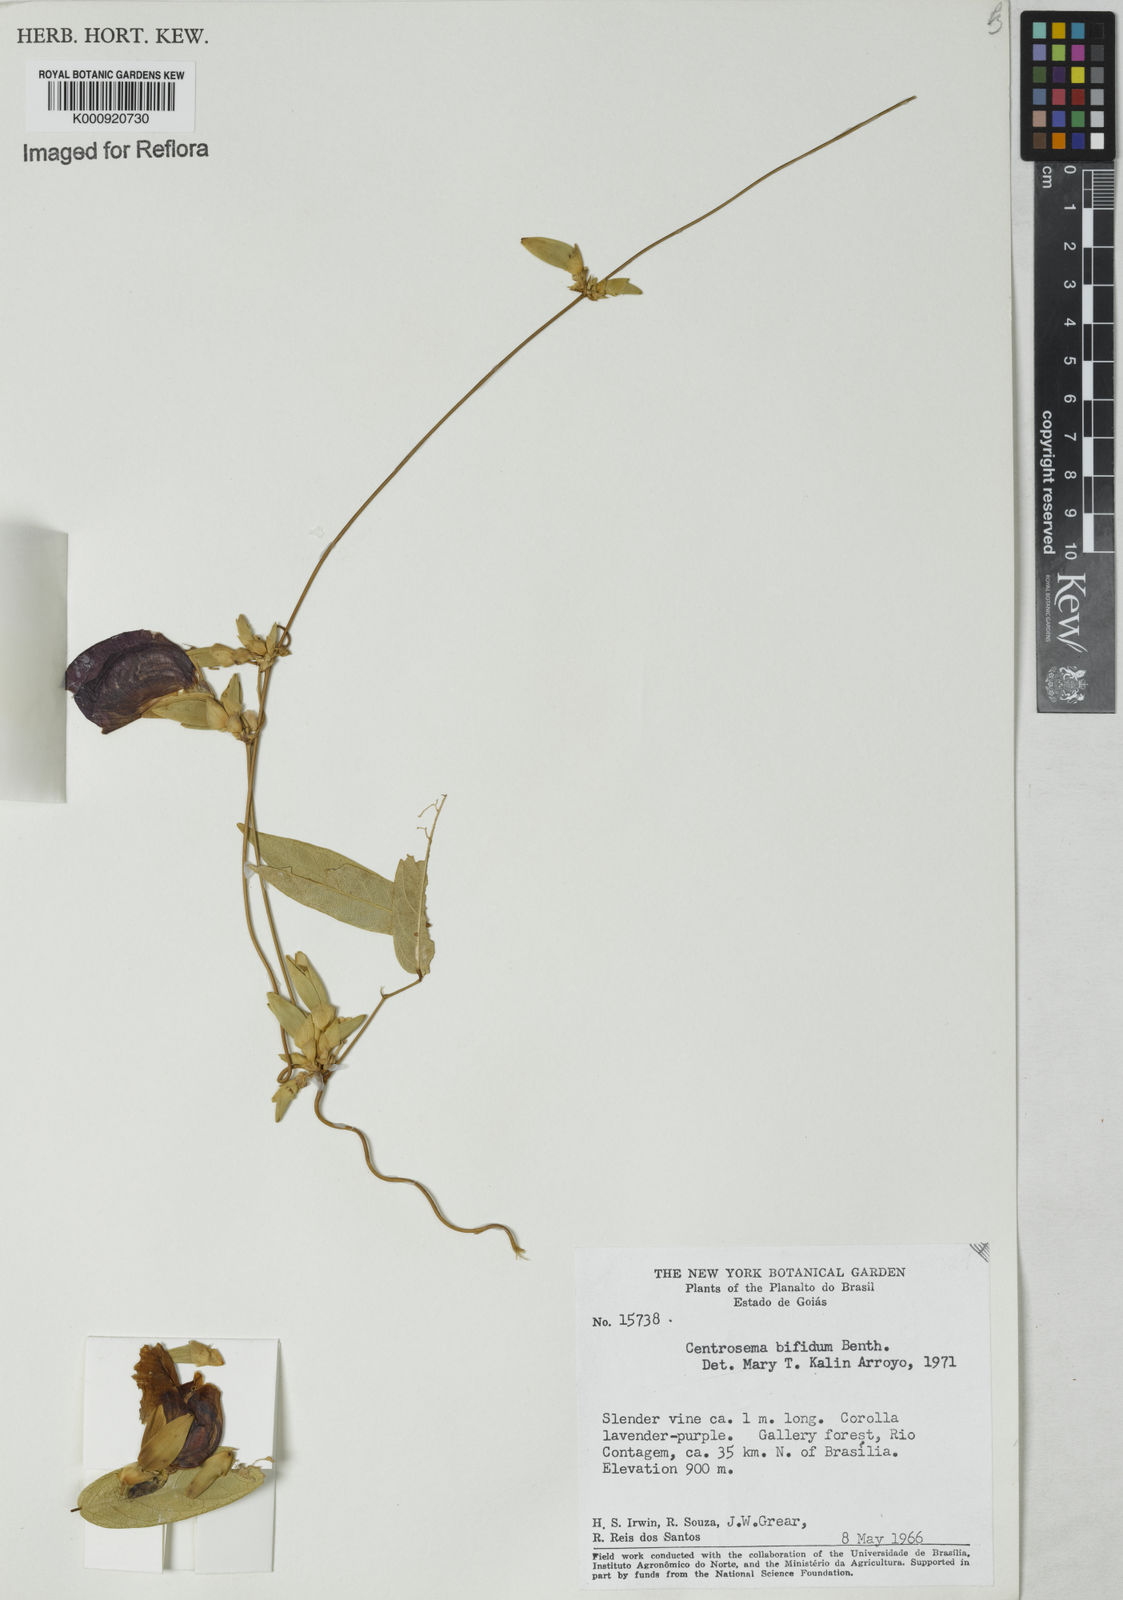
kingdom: Plantae
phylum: Tracheophyta
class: Magnoliopsida
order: Fabales
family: Fabaceae
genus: Centrosema
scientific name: Centrosema bifidum
